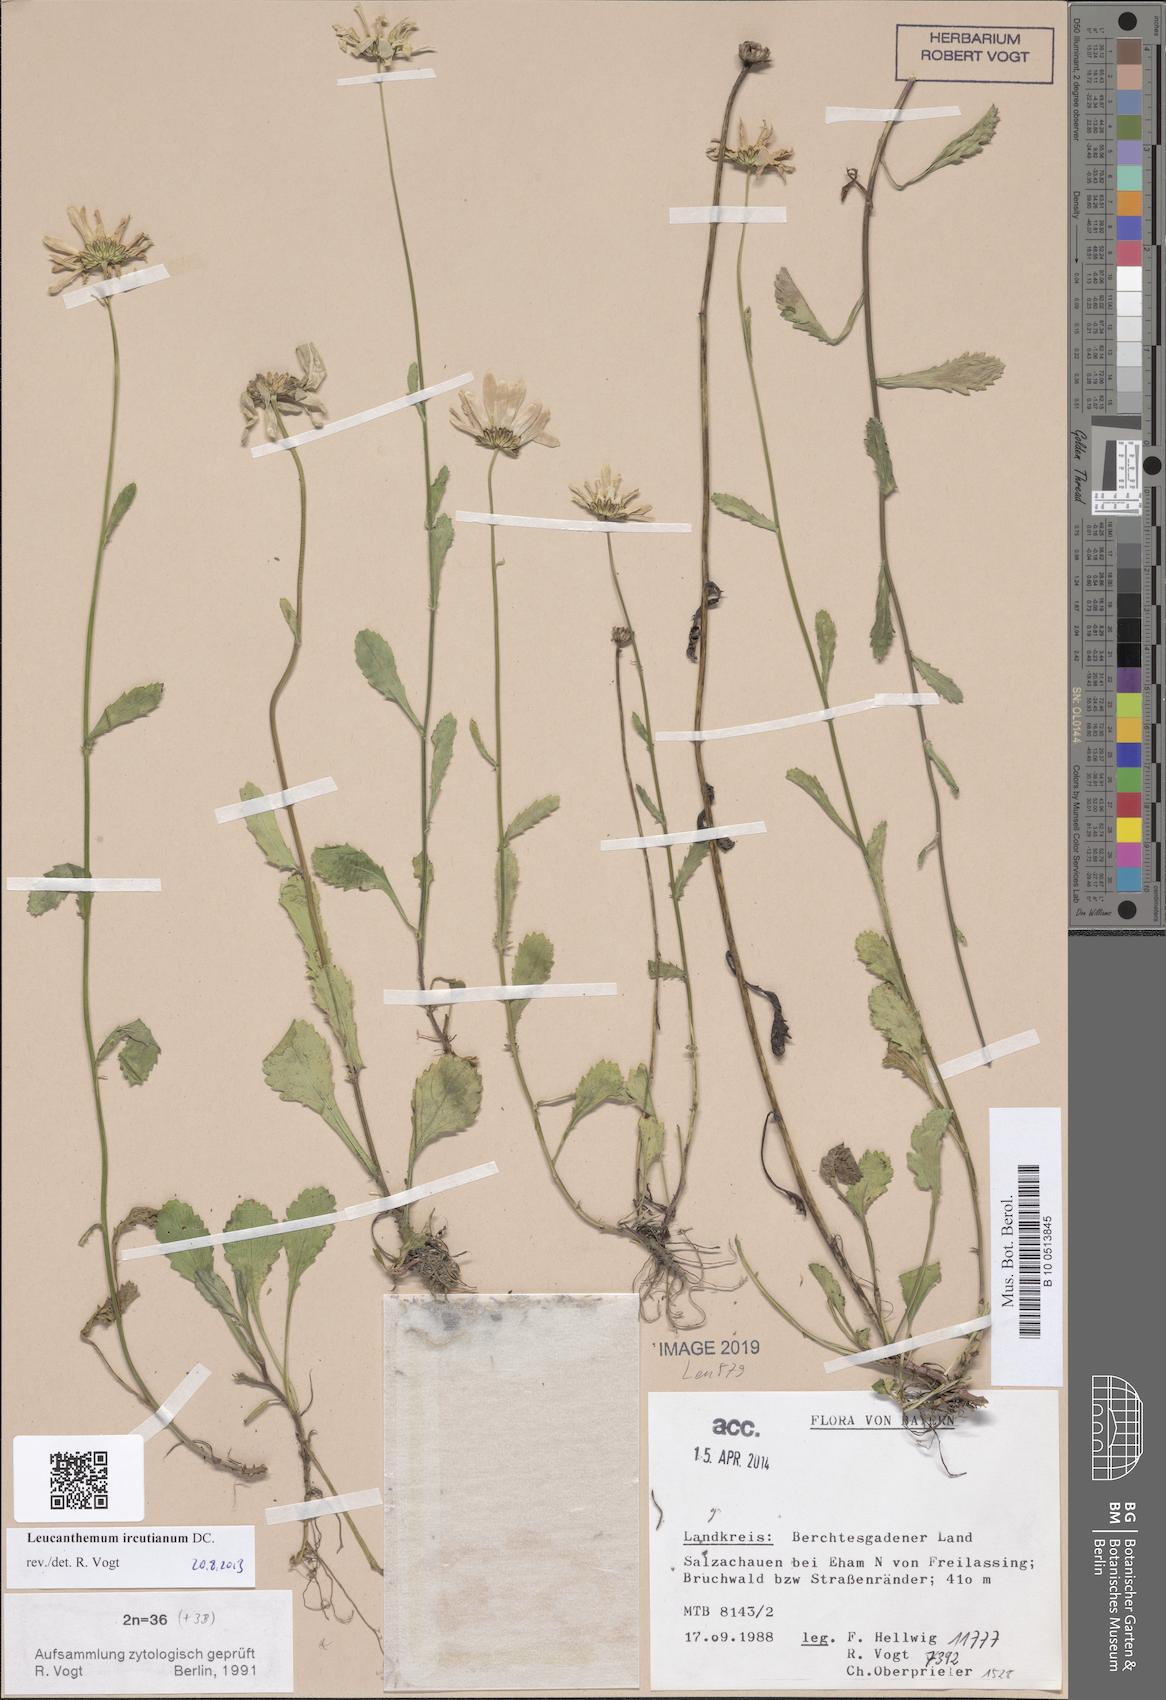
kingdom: Plantae
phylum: Tracheophyta
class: Magnoliopsida
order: Asterales
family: Asteraceae
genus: Leucanthemum
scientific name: Leucanthemum ircutianum
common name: Daisy
